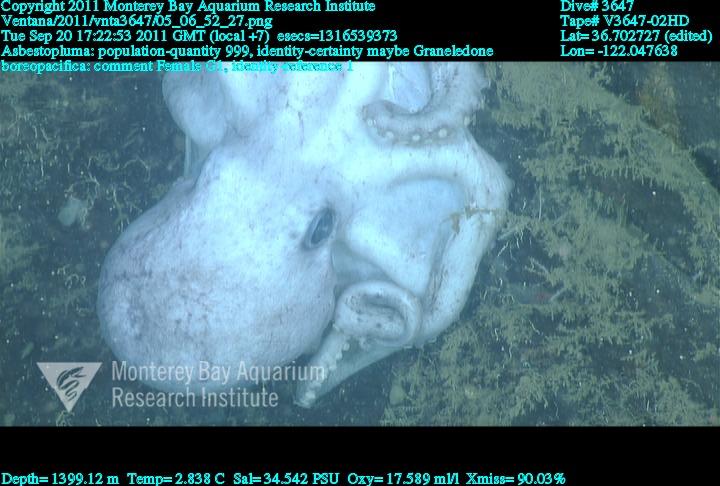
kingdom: Animalia
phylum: Porifera
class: Demospongiae
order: Poecilosclerida
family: Cladorhizidae
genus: Asbestopluma
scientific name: Asbestopluma
